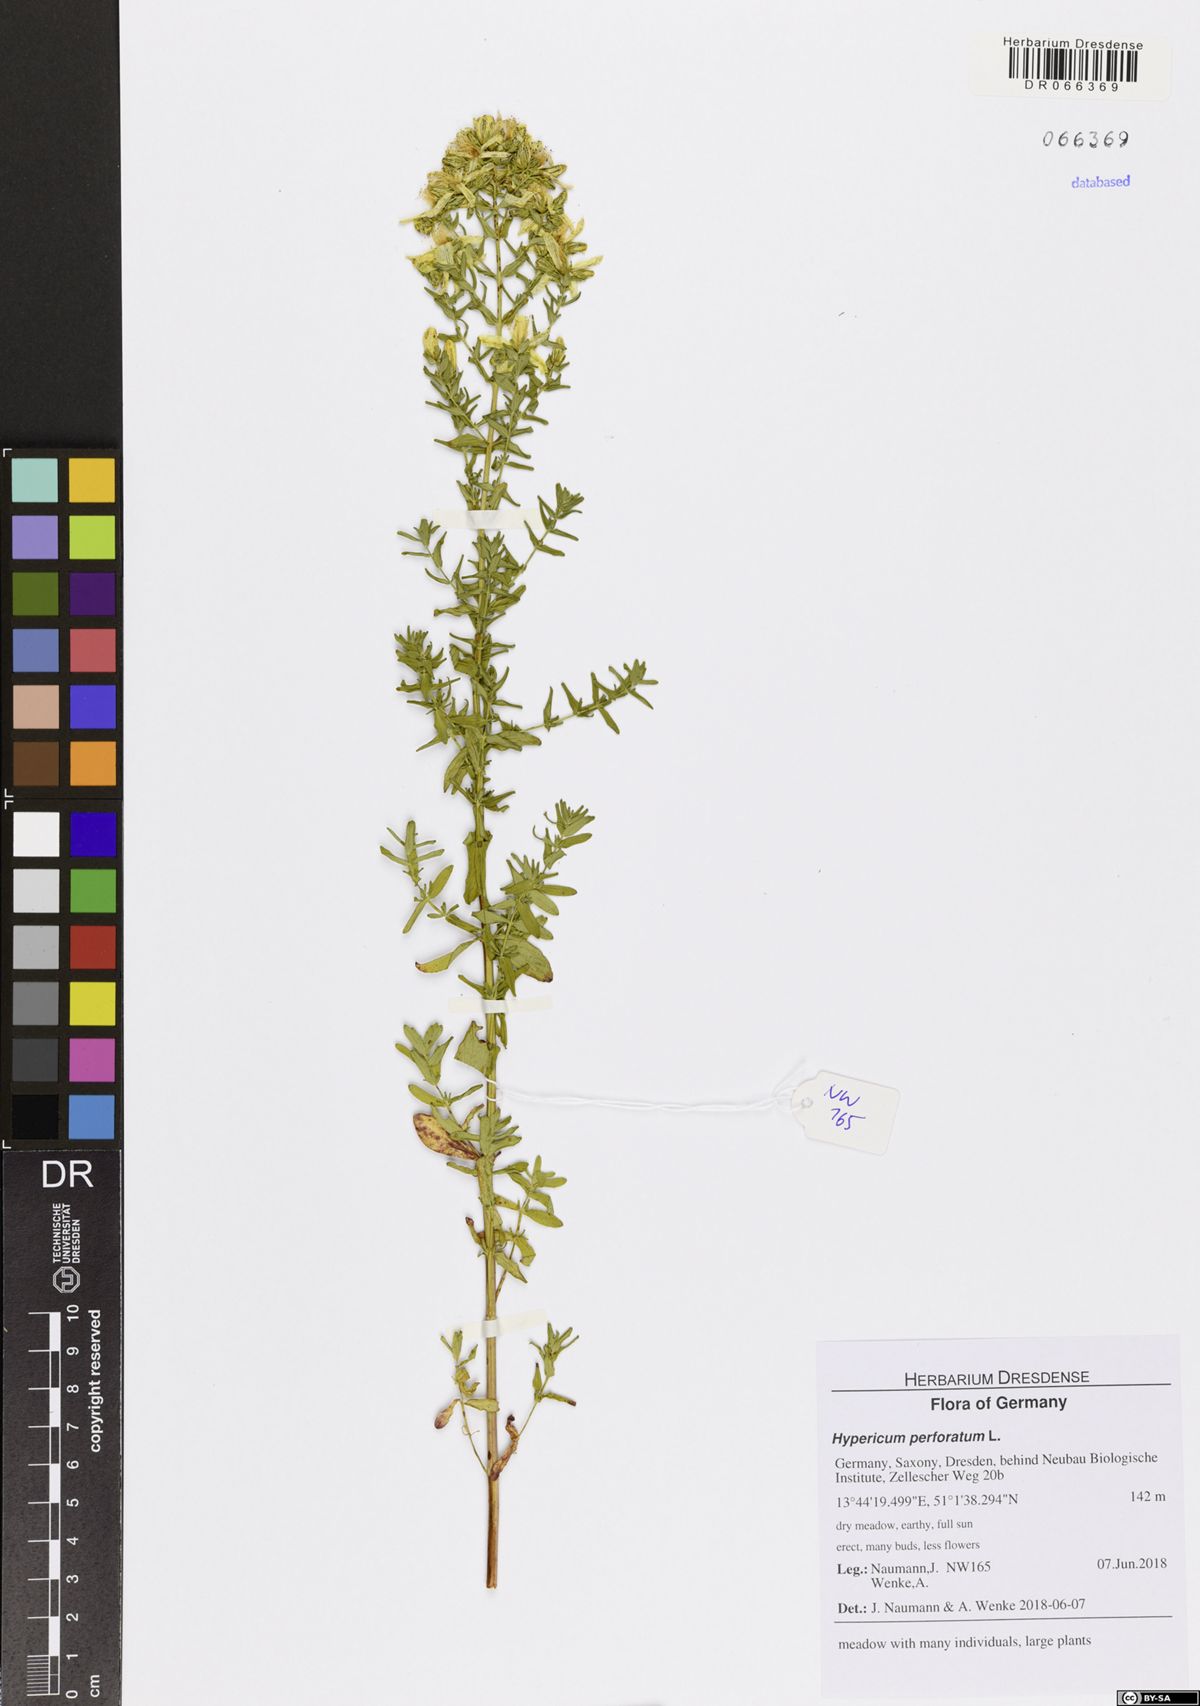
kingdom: Plantae
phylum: Tracheophyta
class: Magnoliopsida
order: Malpighiales
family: Hypericaceae
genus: Hypericum
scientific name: Hypericum perforatum
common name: Common st. johnswort
